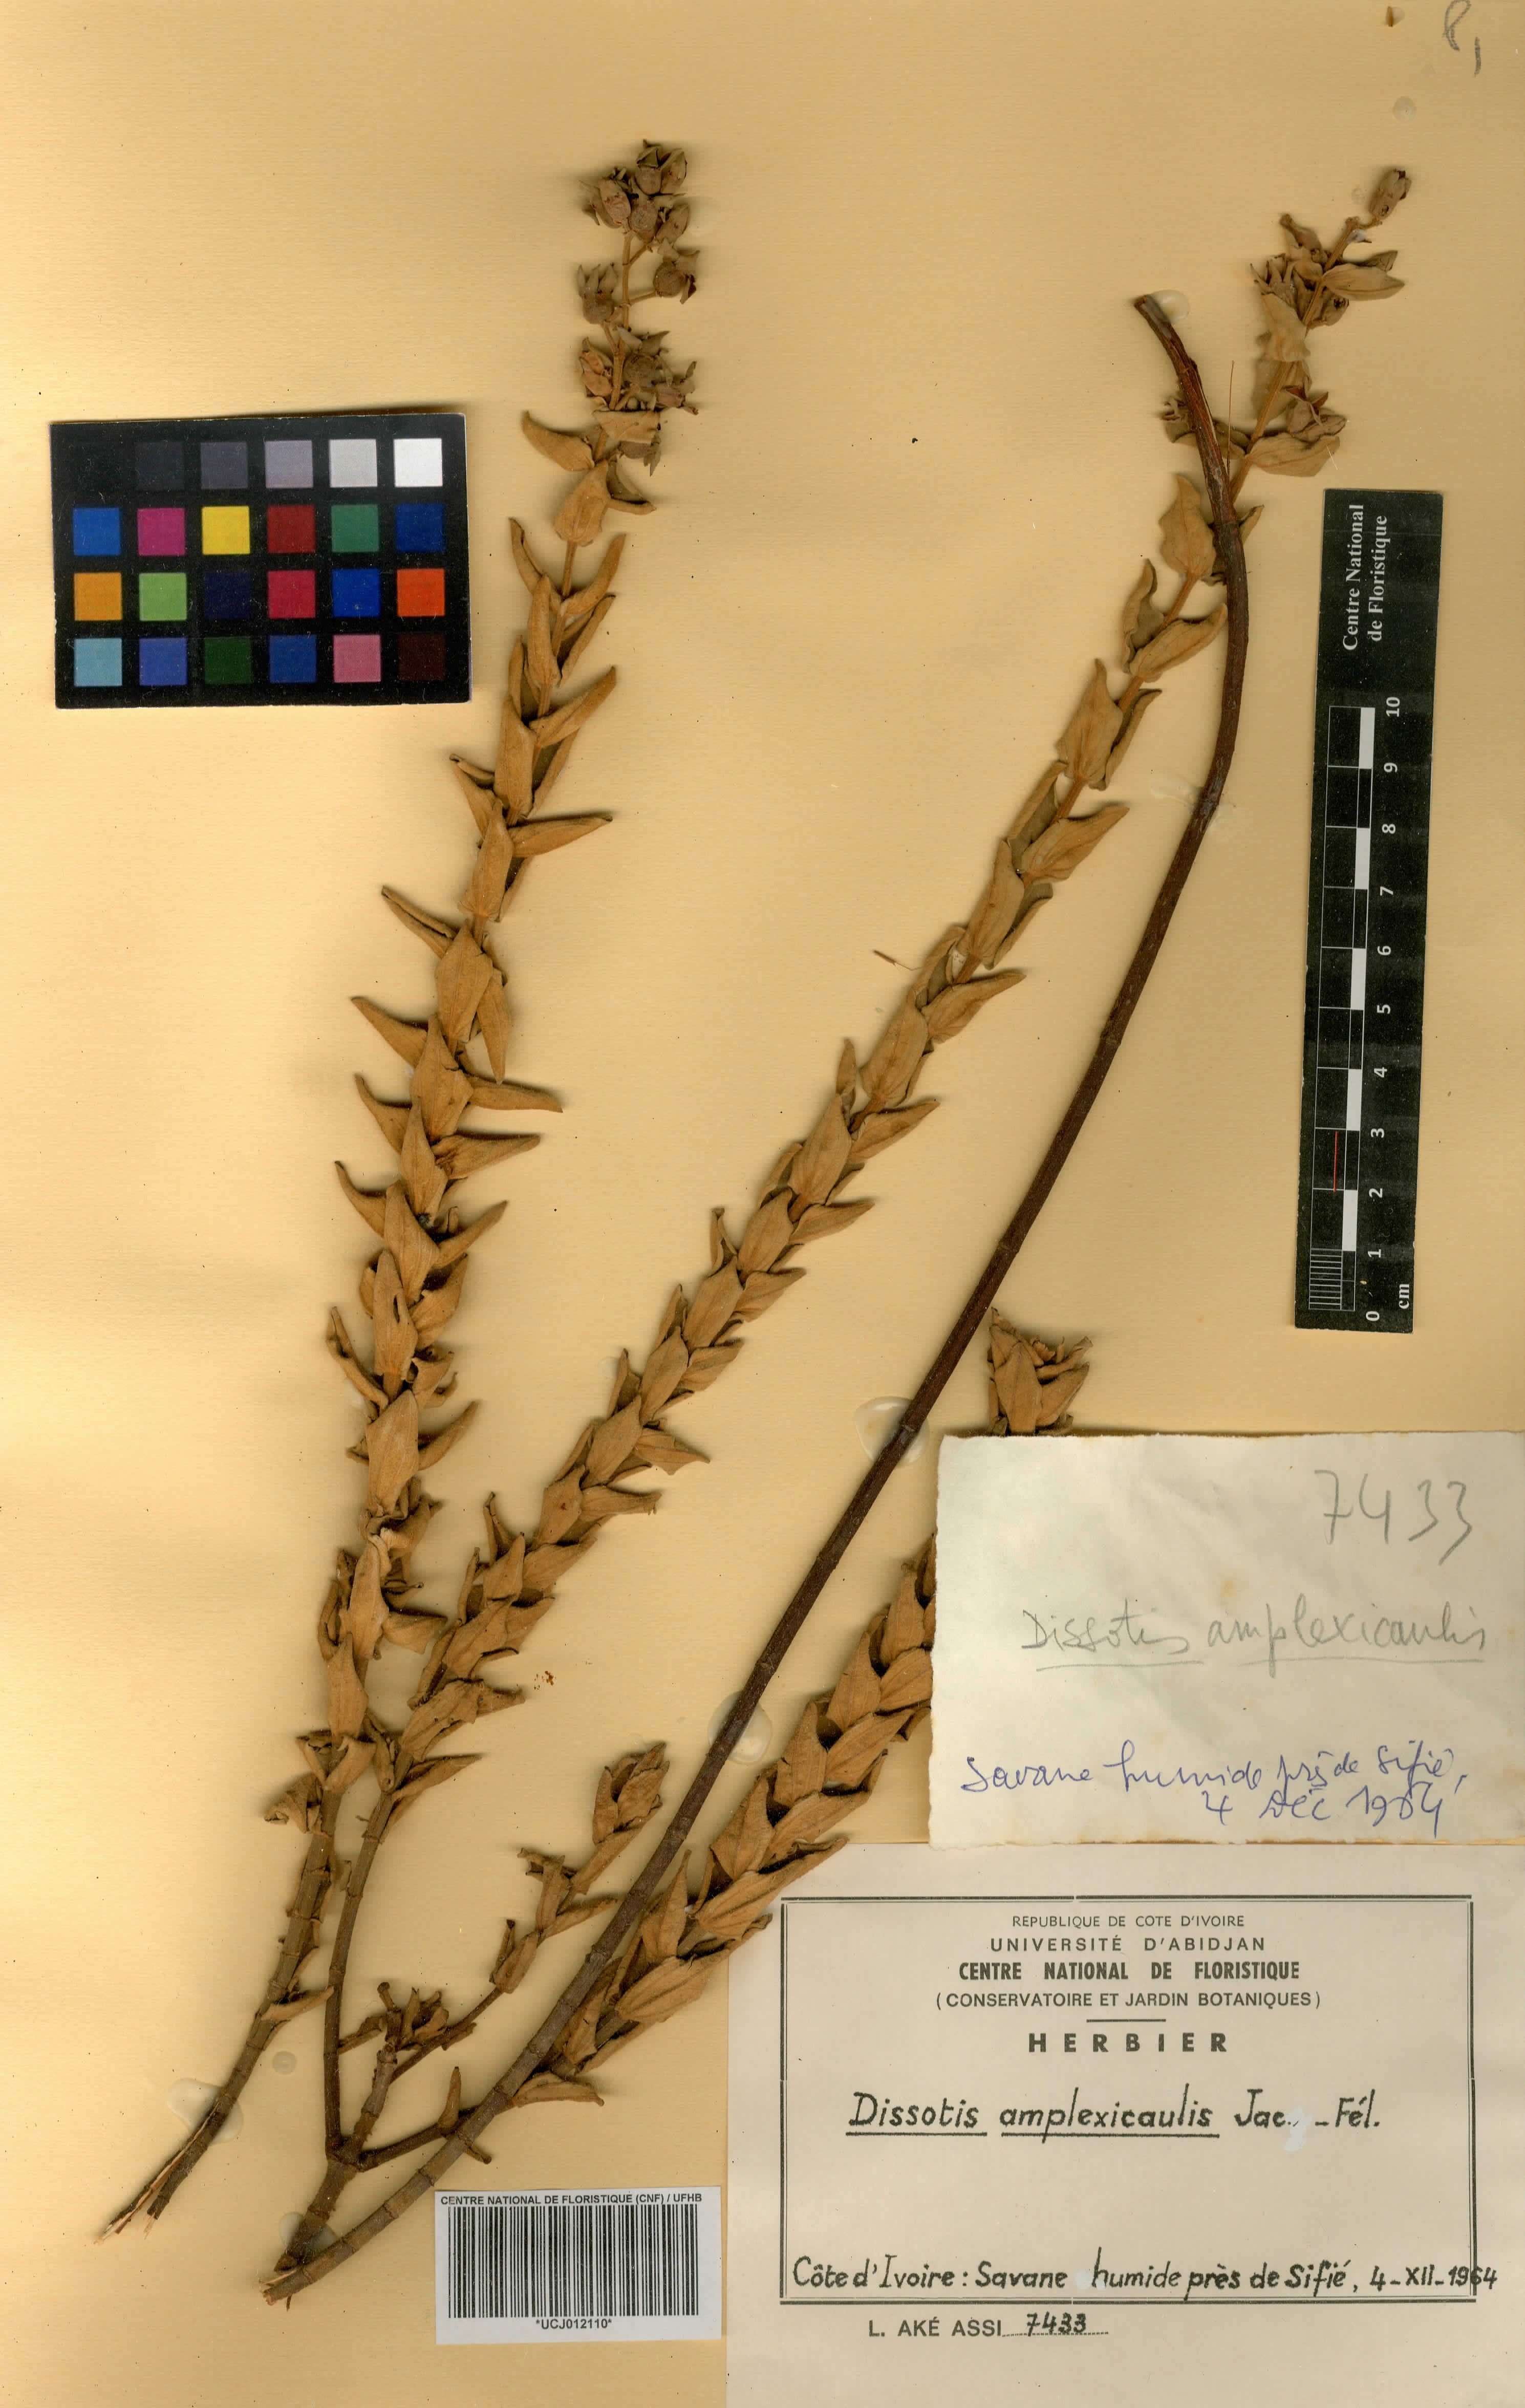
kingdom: Plantae
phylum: Tracheophyta
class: Magnoliopsida
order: Myrtales
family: Melastomataceae
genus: Argyrella
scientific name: Argyrella amplexicaulis
